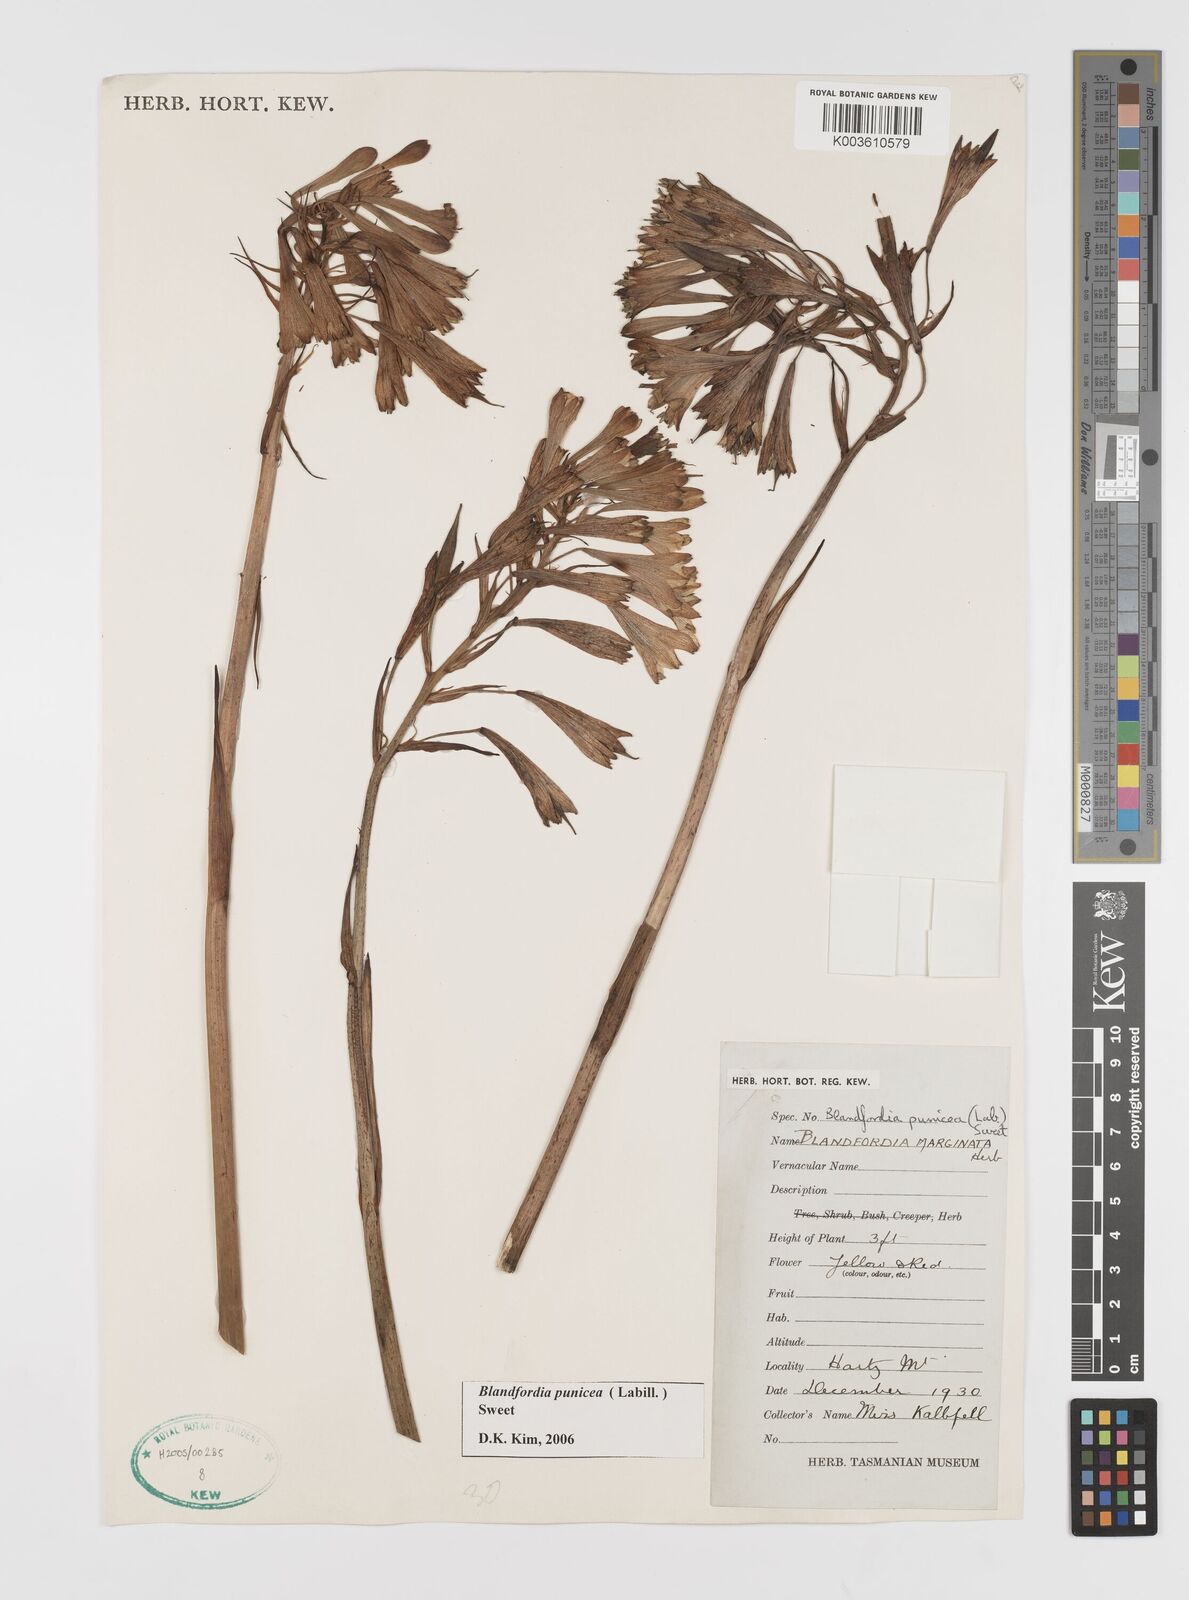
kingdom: Plantae
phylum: Tracheophyta
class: Liliopsida
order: Asparagales
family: Blandfordiaceae
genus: Blandfordia
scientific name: Blandfordia punicea
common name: Tasmanian christmas-bell
